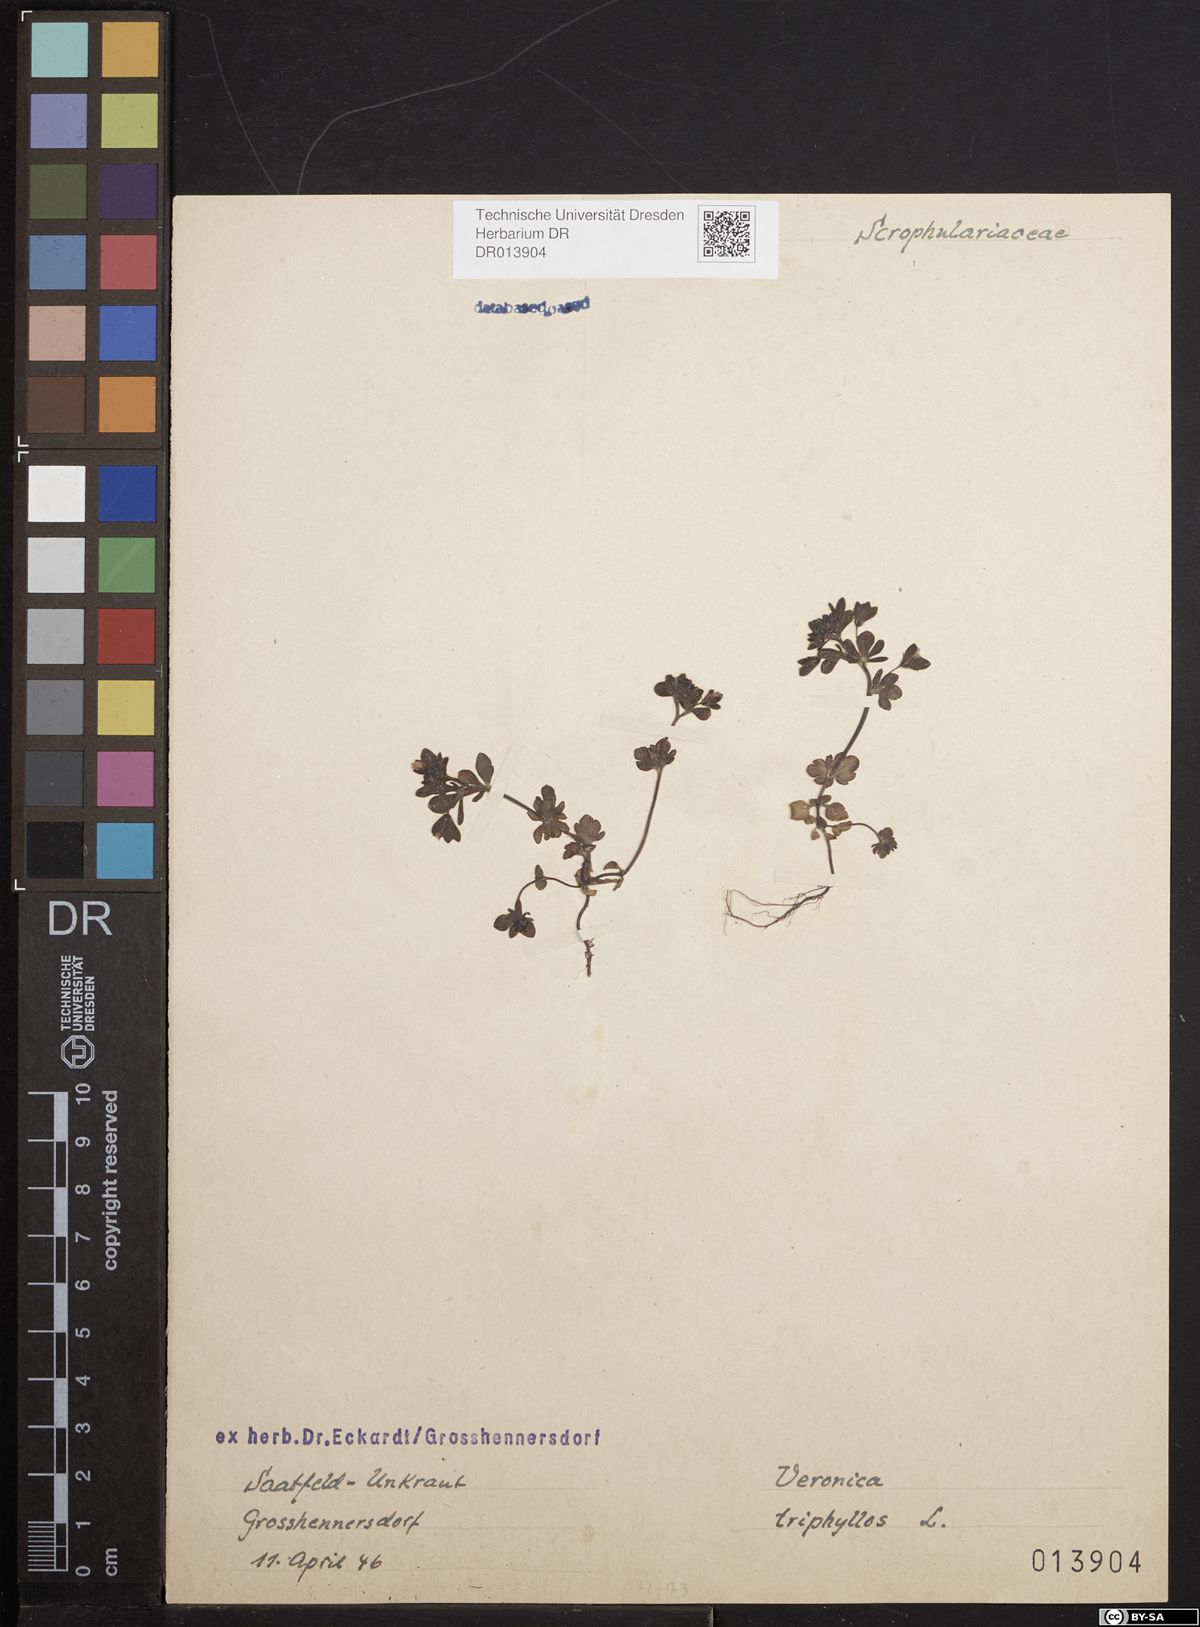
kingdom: Plantae
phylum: Tracheophyta
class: Magnoliopsida
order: Lamiales
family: Plantaginaceae
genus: Veronica
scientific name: Veronica triphyllos
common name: Fingered speedwell
